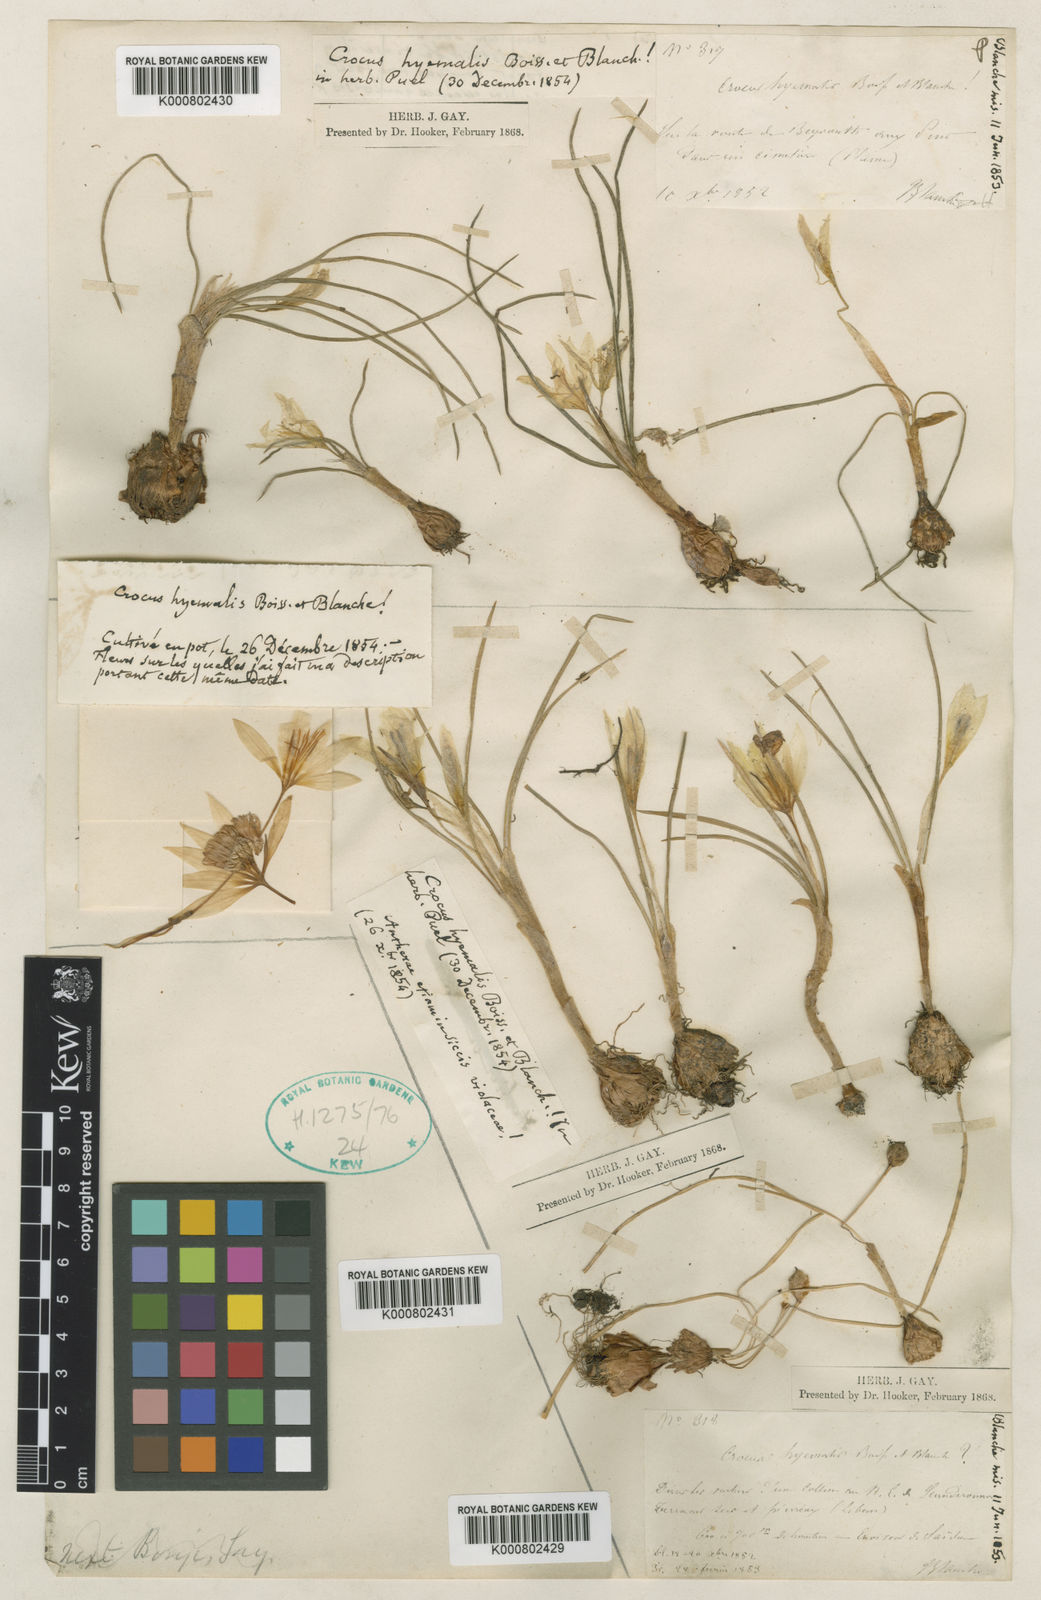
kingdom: Plantae
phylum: Tracheophyta
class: Liliopsida
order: Asparagales
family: Iridaceae
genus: Crocus
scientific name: Crocus hyemalis
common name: Winter crocus
